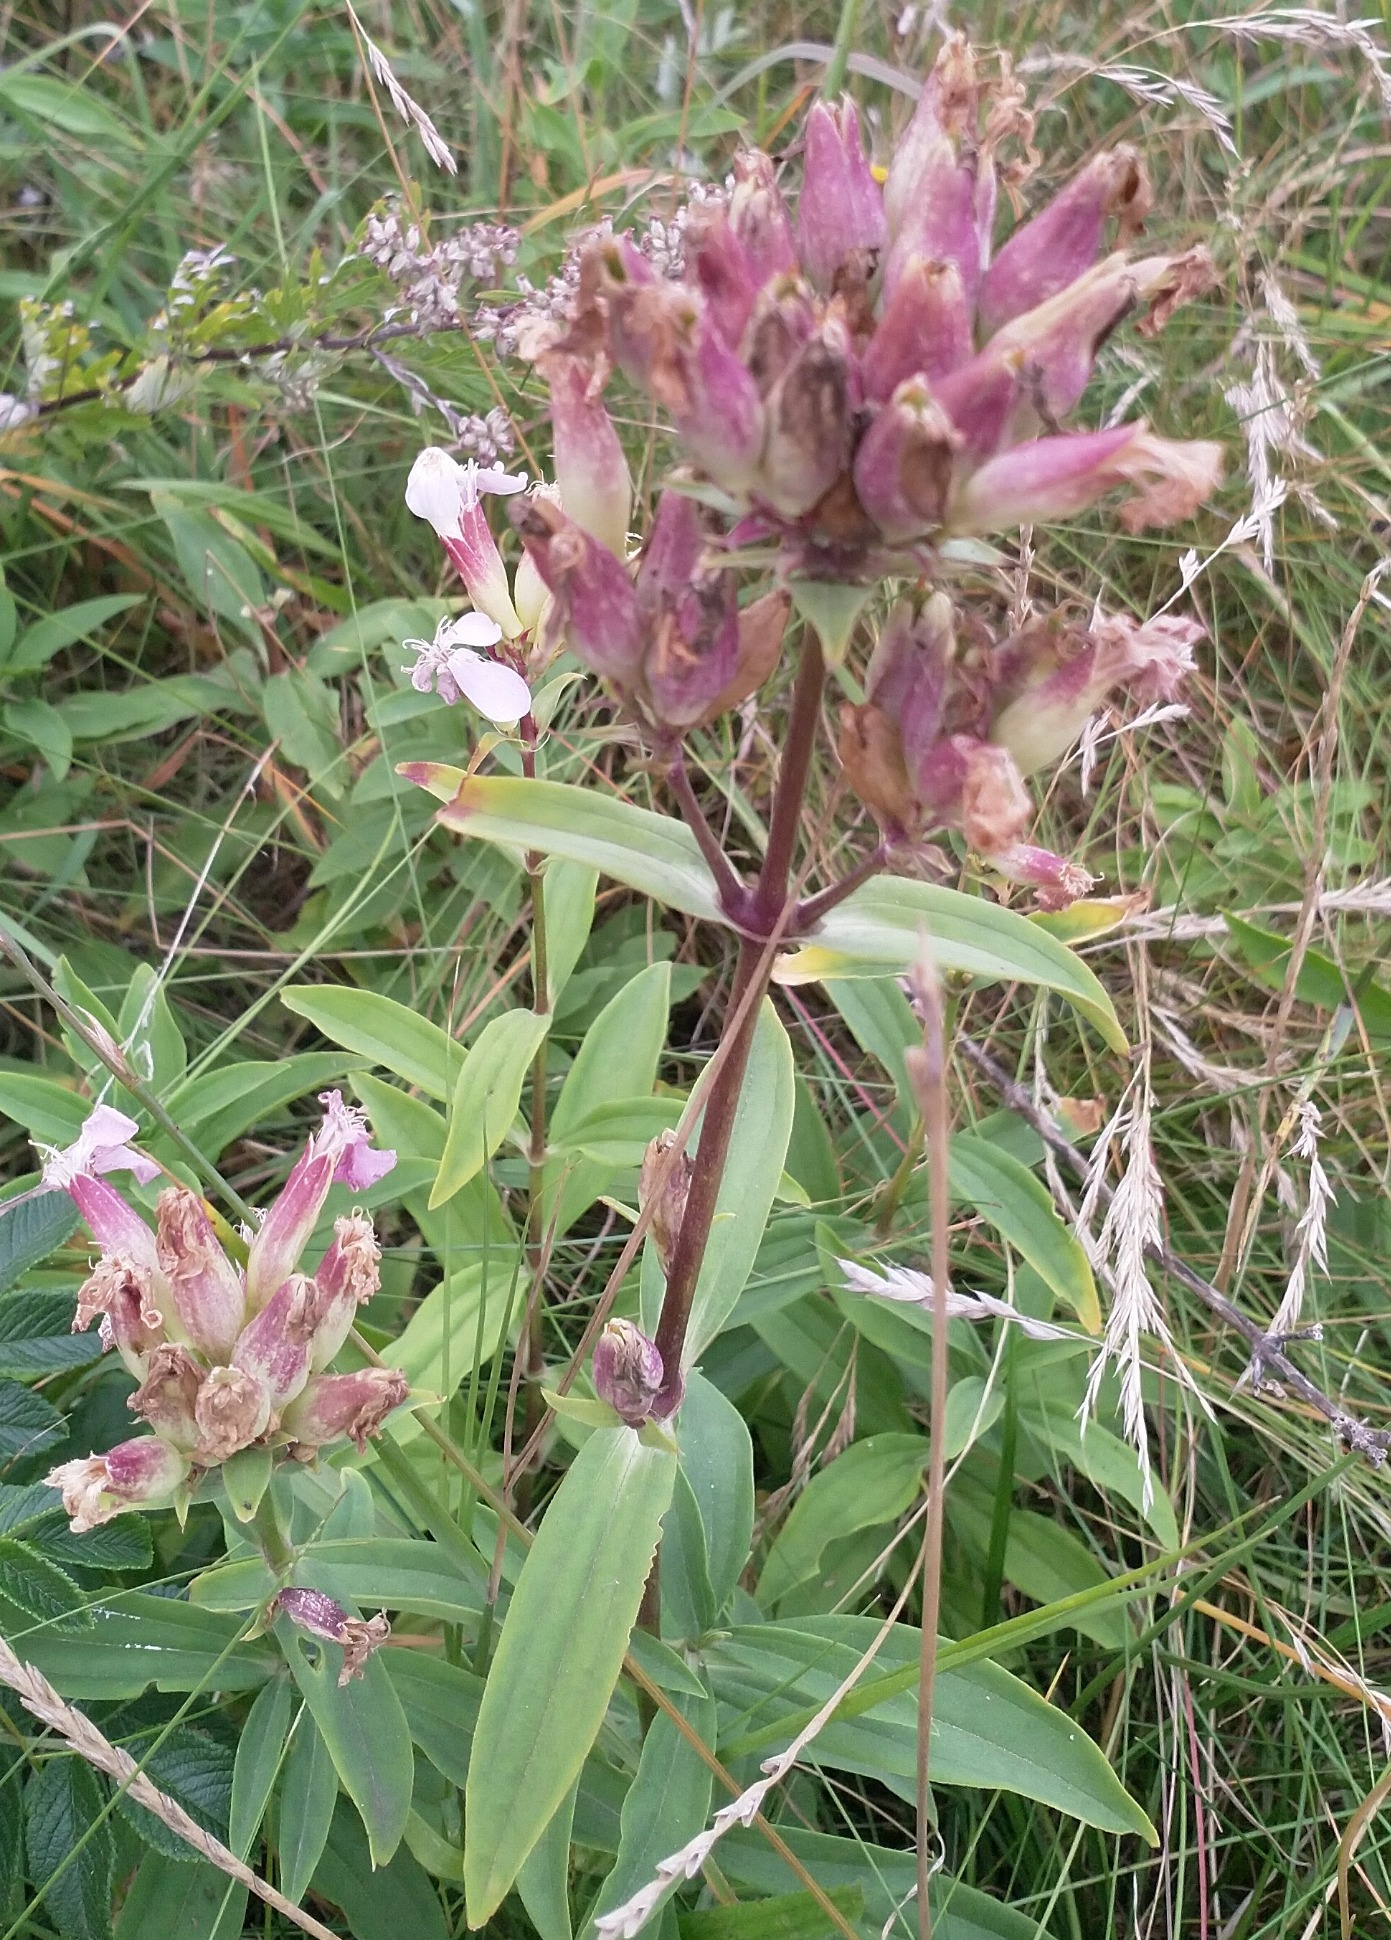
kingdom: Plantae
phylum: Tracheophyta
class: Magnoliopsida
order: Caryophyllales
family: Caryophyllaceae
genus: Saponaria
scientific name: Saponaria officinalis
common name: Sæbeurt
